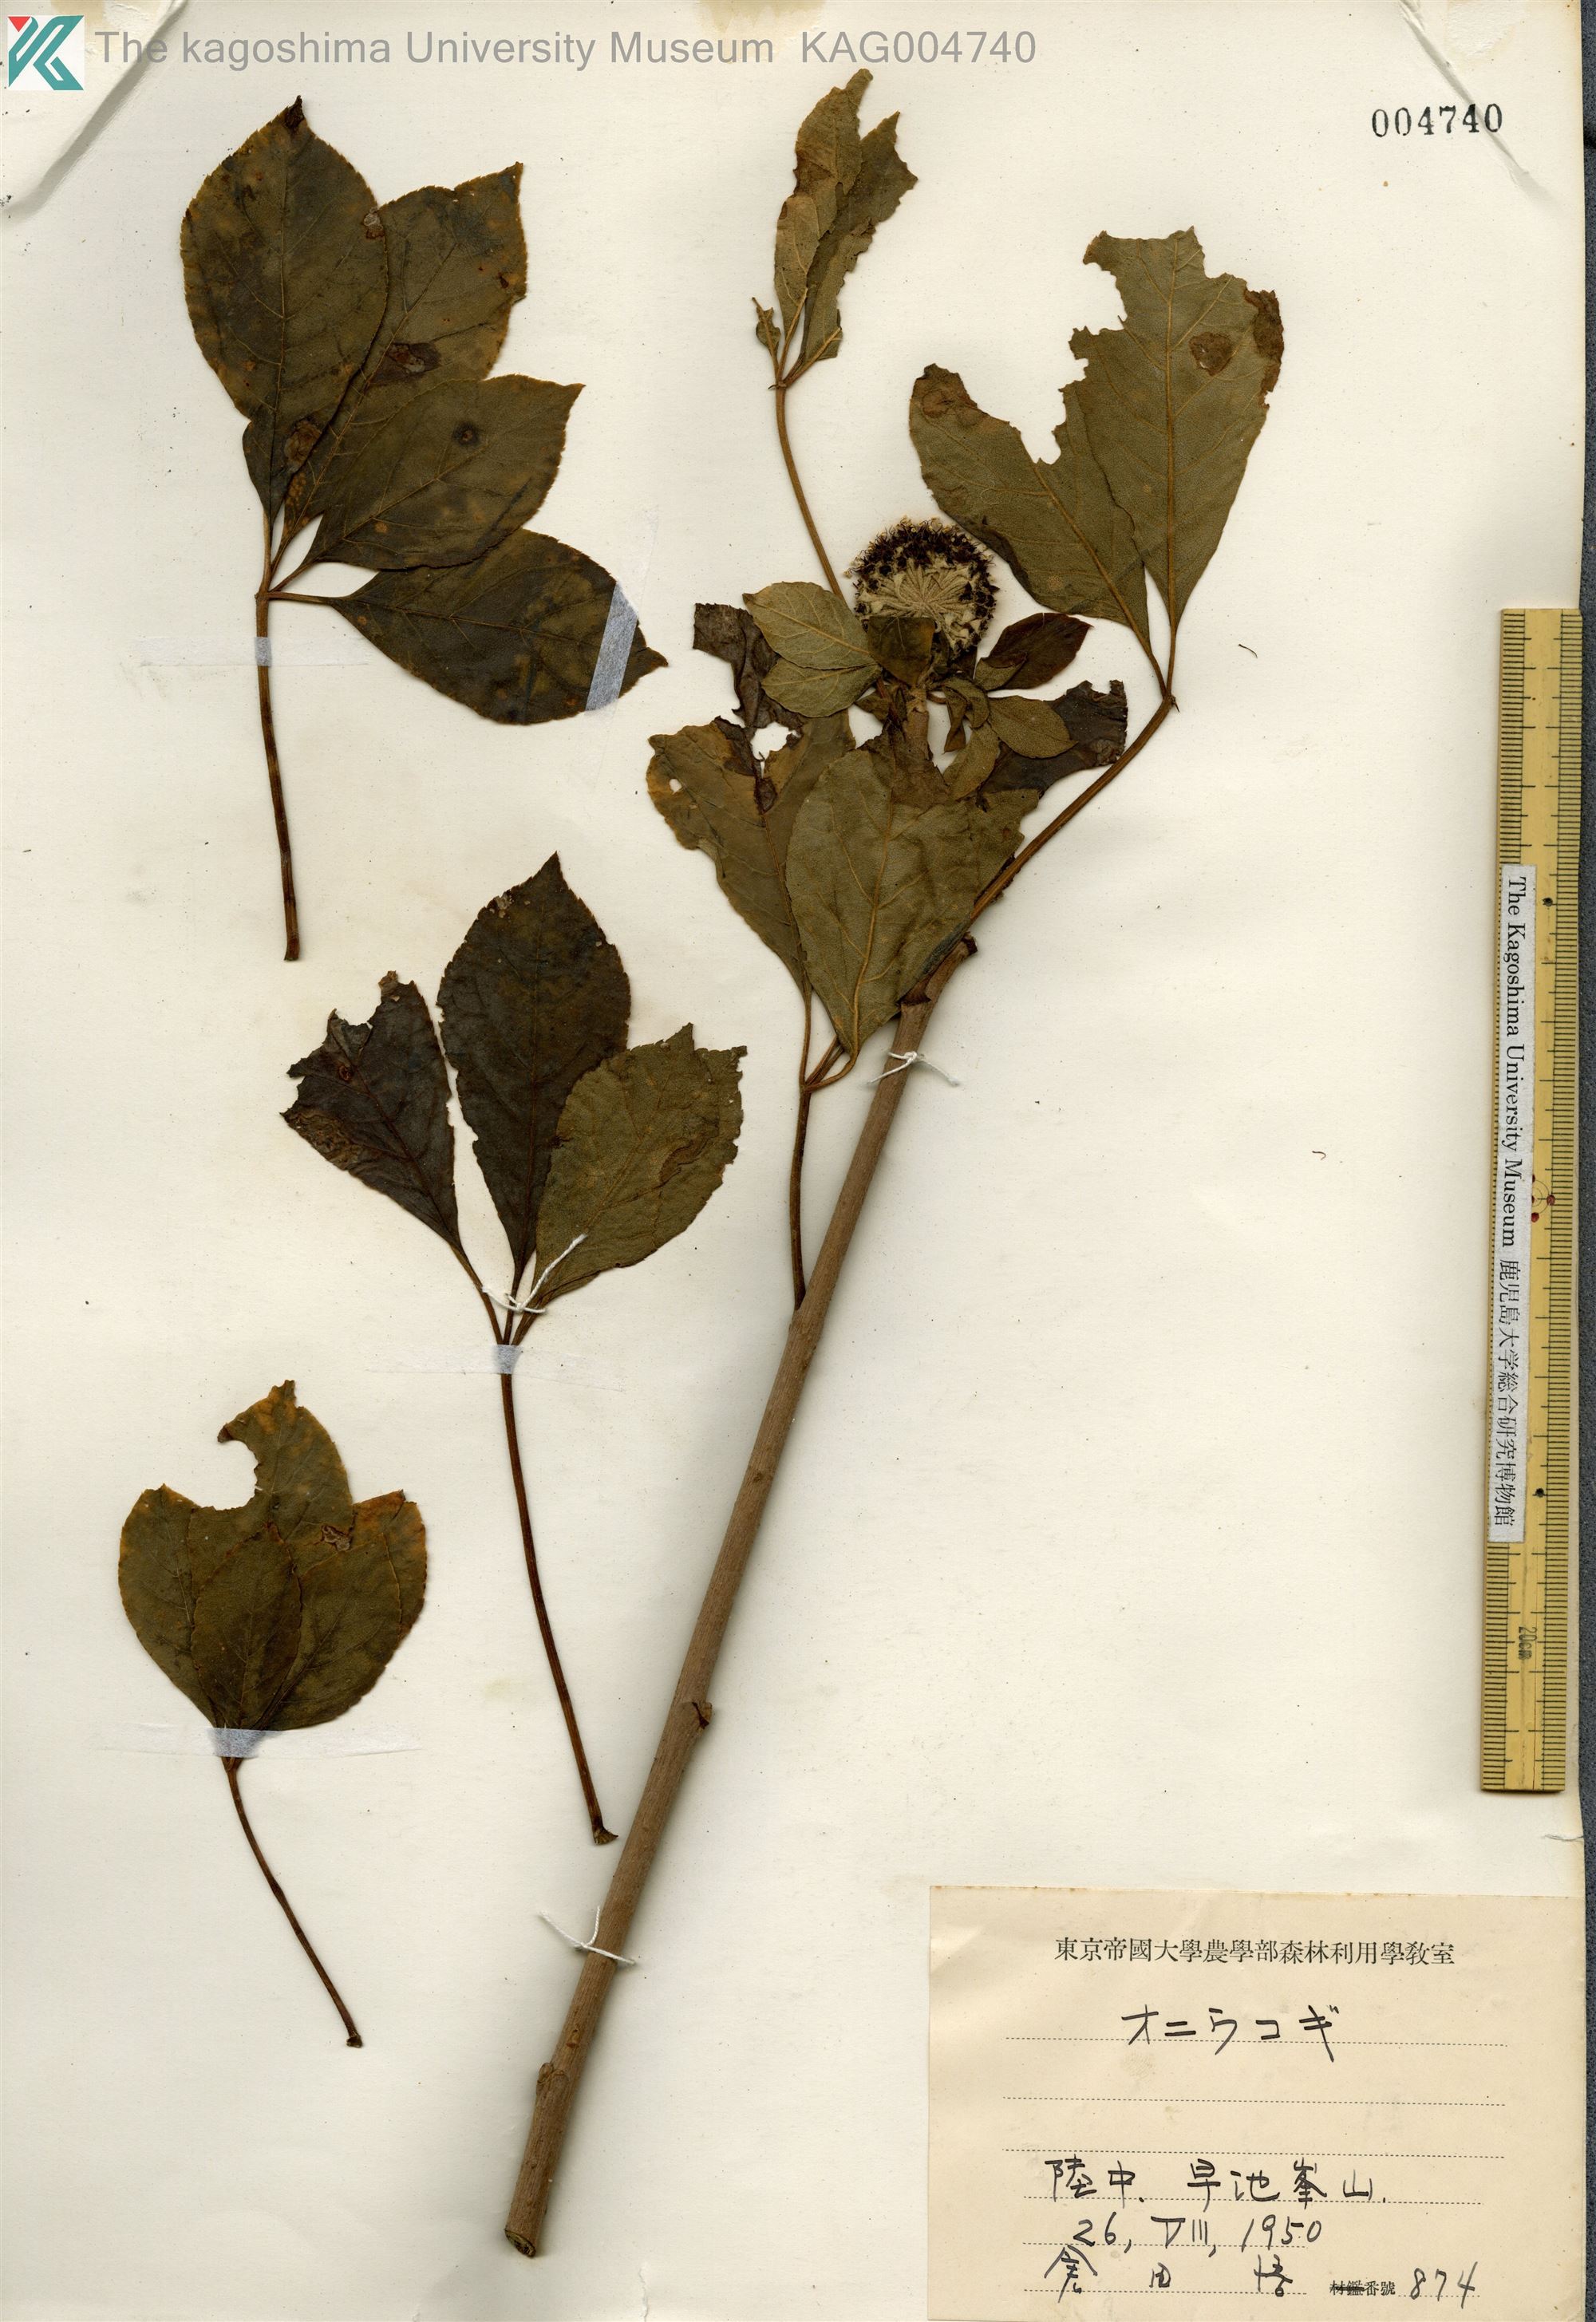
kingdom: Plantae
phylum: Tracheophyta
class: Magnoliopsida
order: Apiales
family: Araliaceae
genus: Eleutherococcus
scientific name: Eleutherococcus divaricatus
